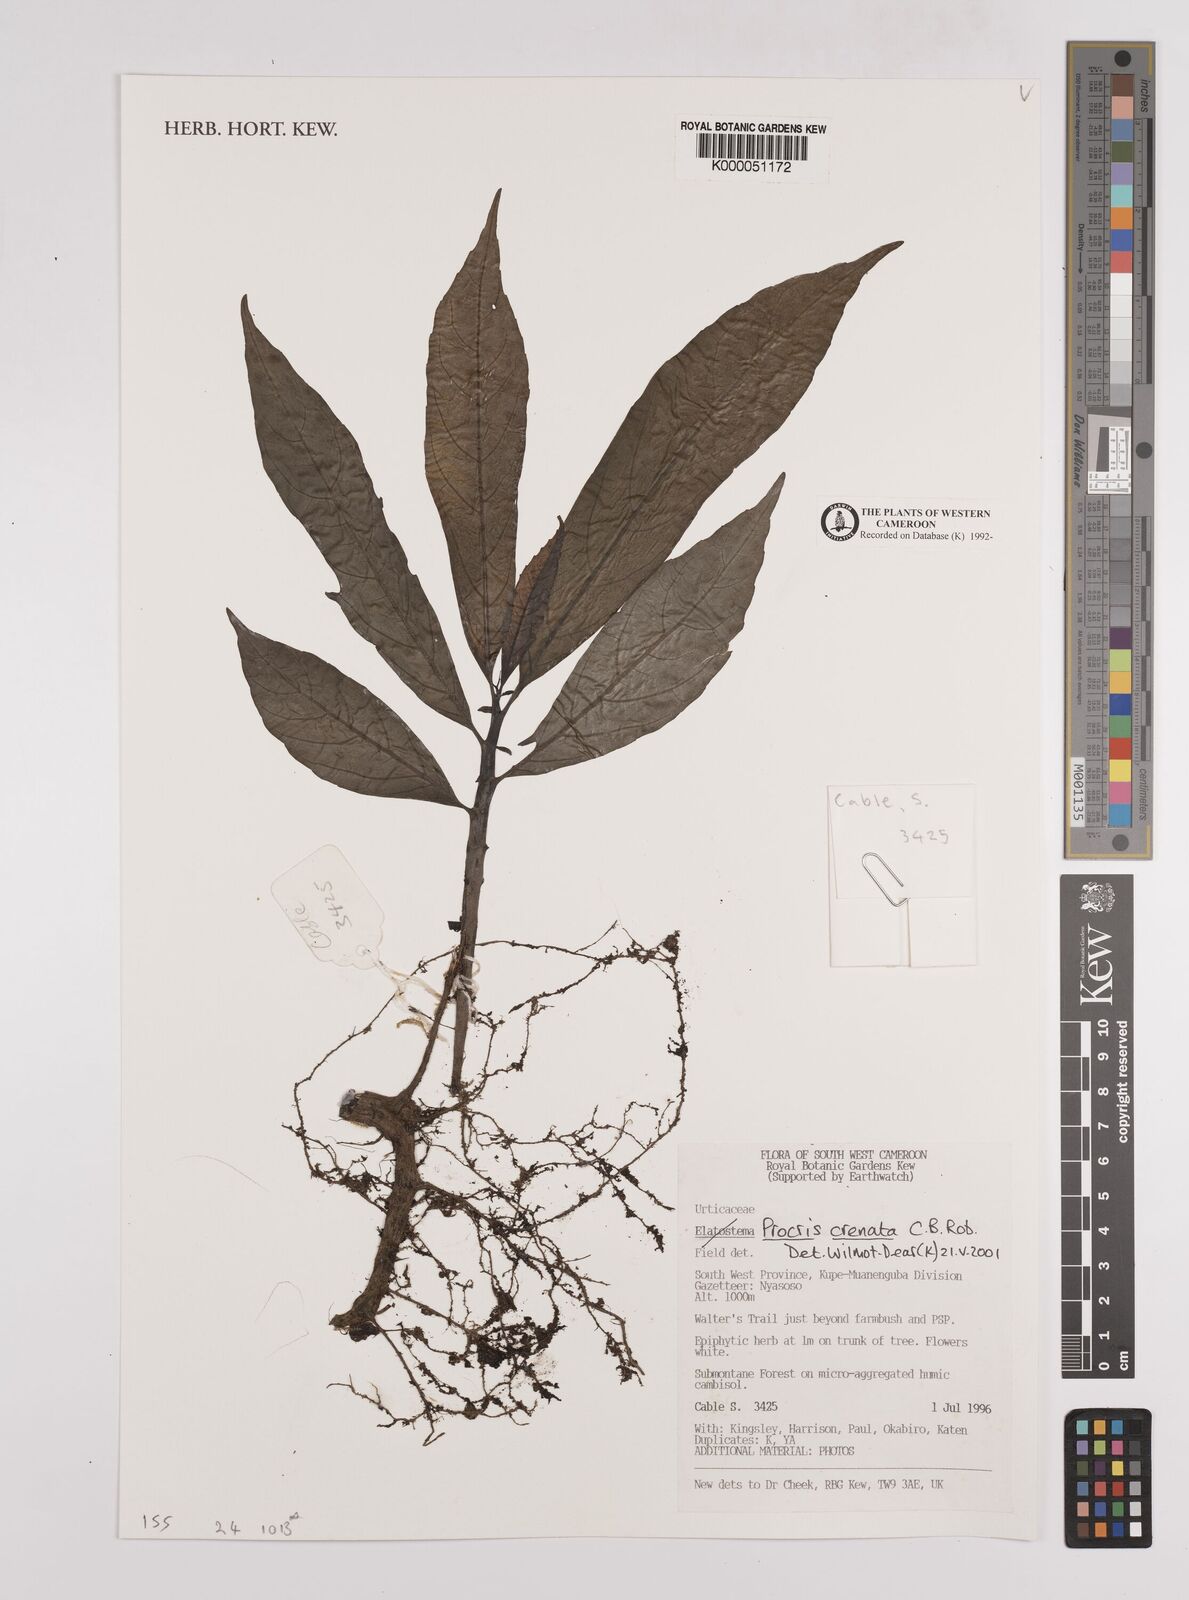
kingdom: Plantae
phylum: Tracheophyta
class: Magnoliopsida
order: Rosales
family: Urticaceae
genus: Procris
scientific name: Procris crenata
